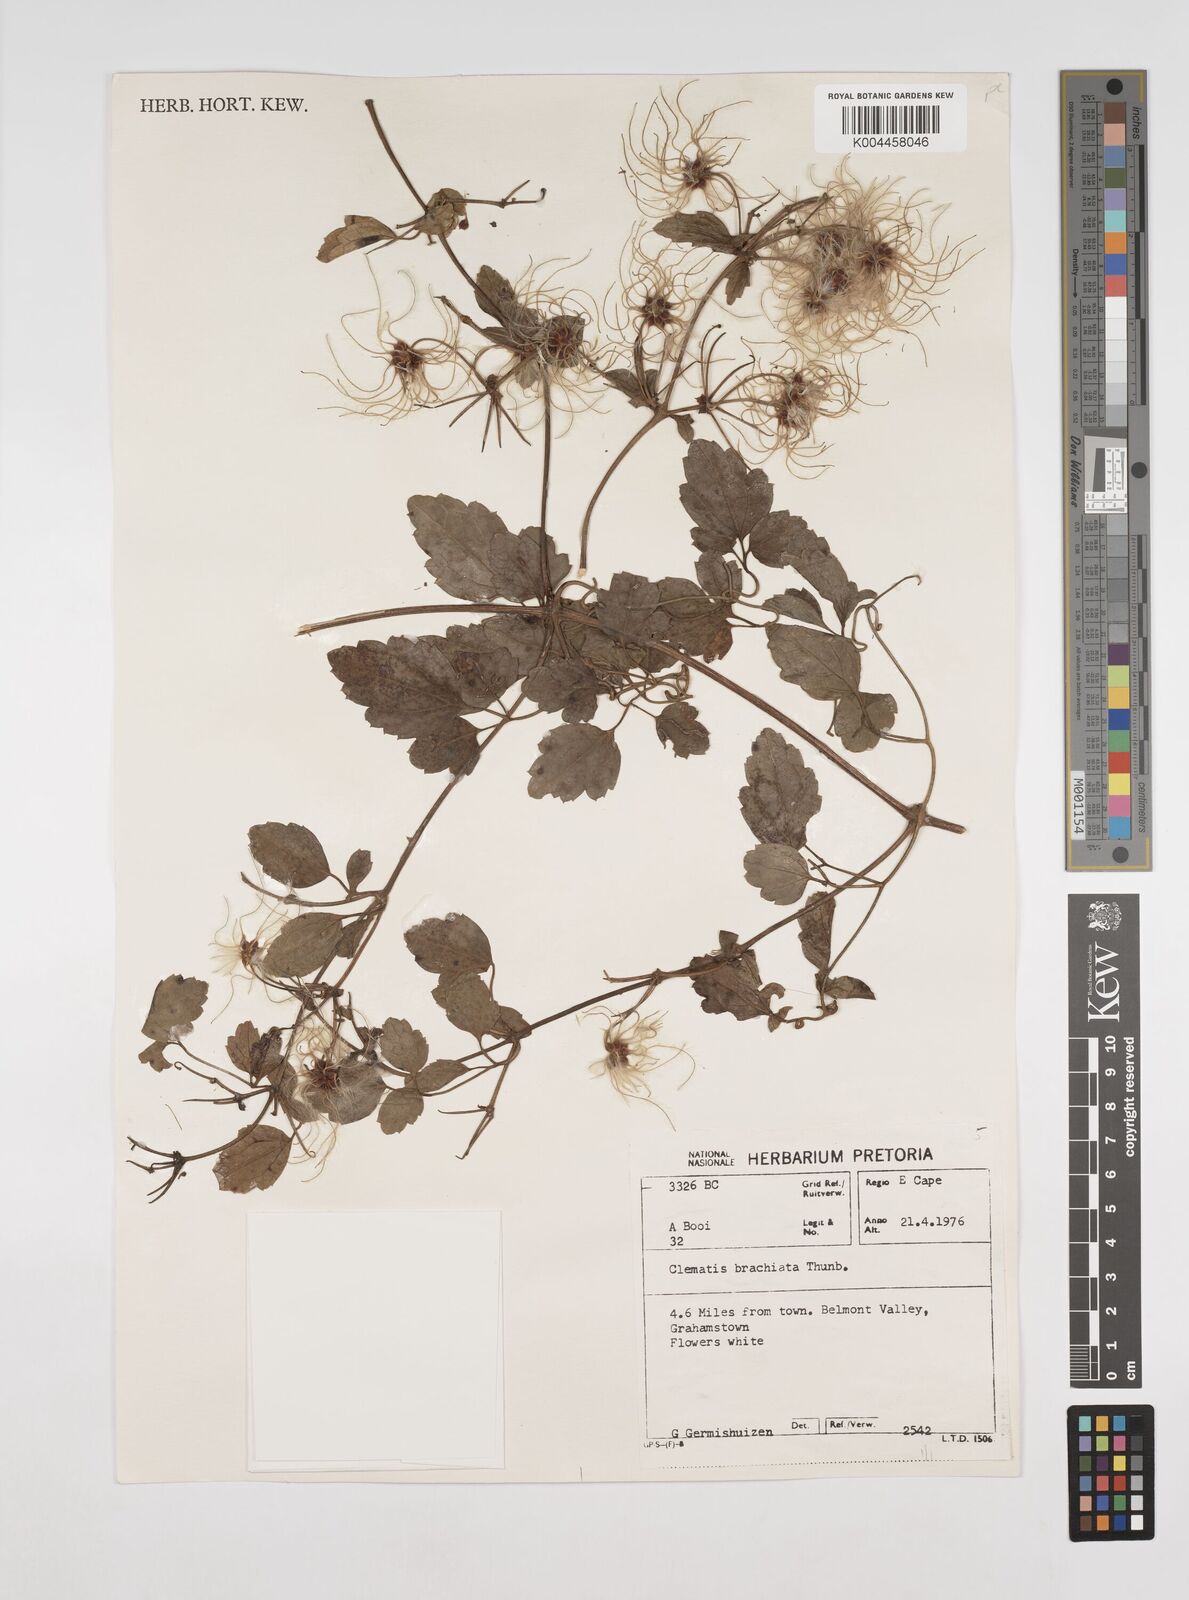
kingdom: Plantae
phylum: Tracheophyta
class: Magnoliopsida
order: Ranunculales
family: Ranunculaceae
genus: Clematis
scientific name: Clematis brachiata
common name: Traveler's-joy
